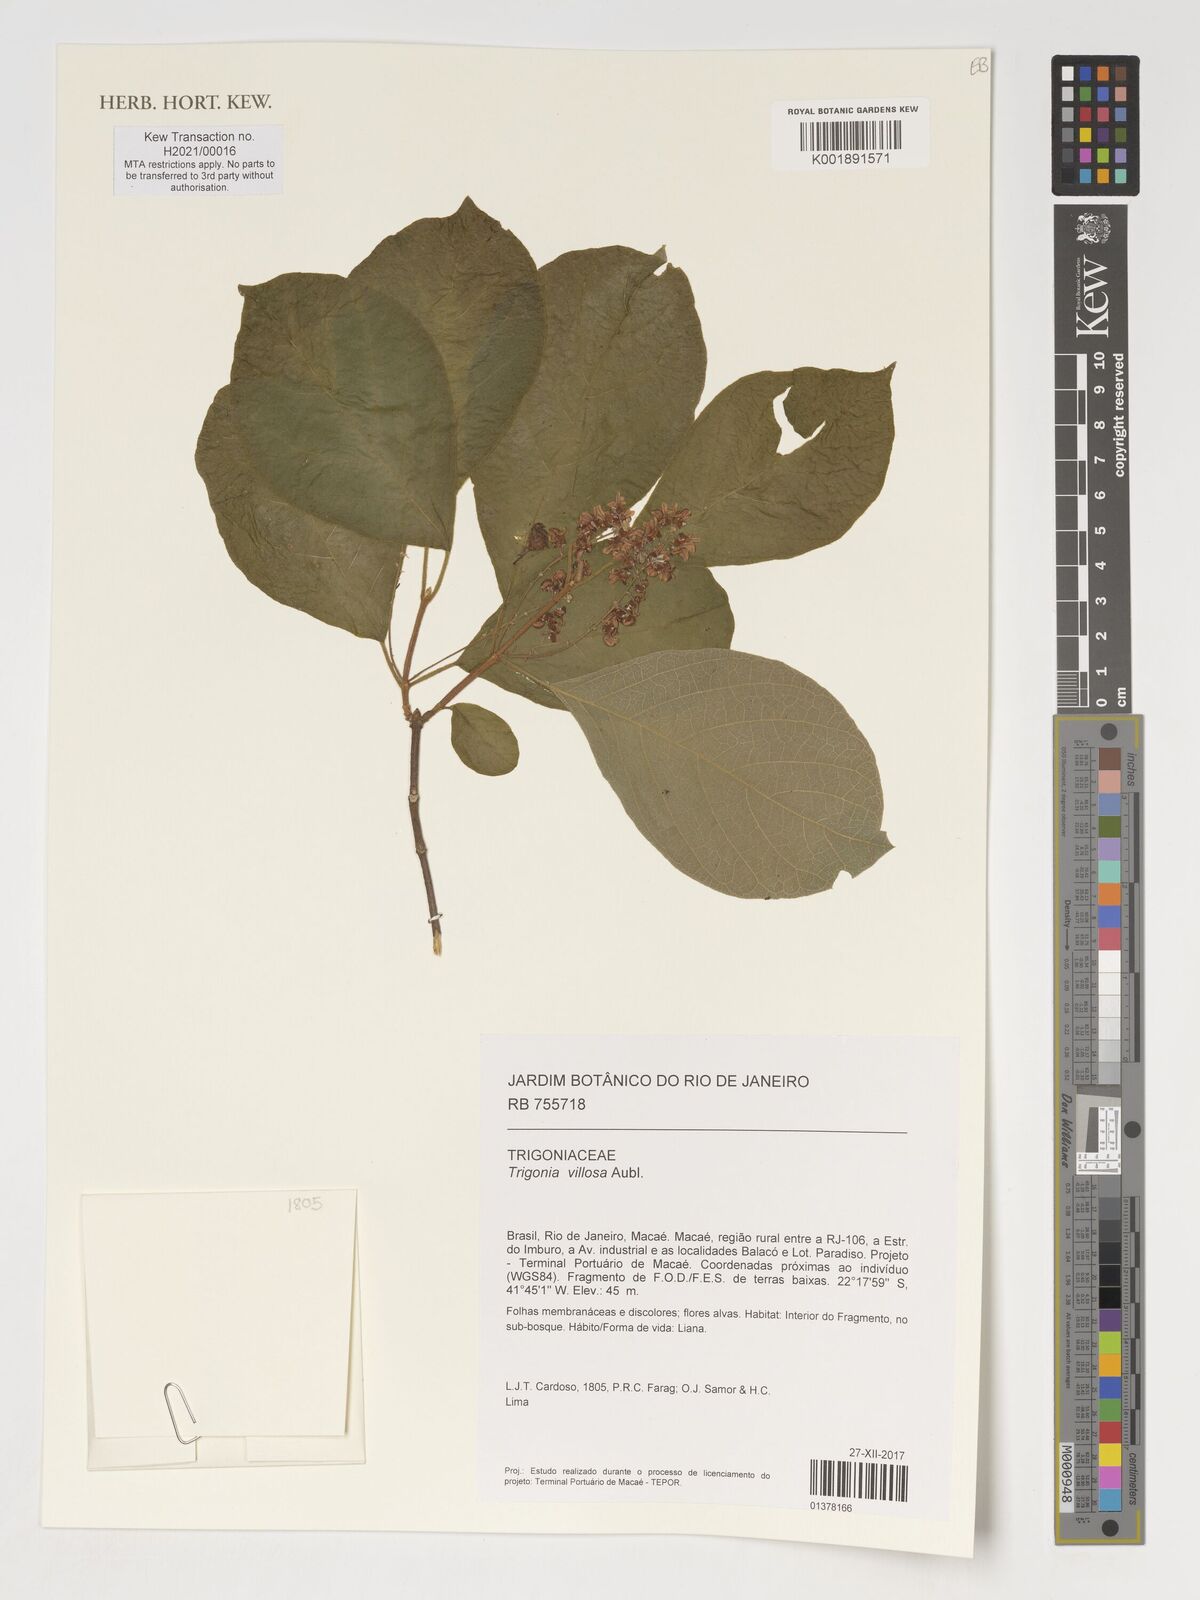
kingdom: Plantae
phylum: Tracheophyta
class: Magnoliopsida
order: Malpighiales
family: Trigoniaceae
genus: Trigonia
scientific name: Trigonia villosa
